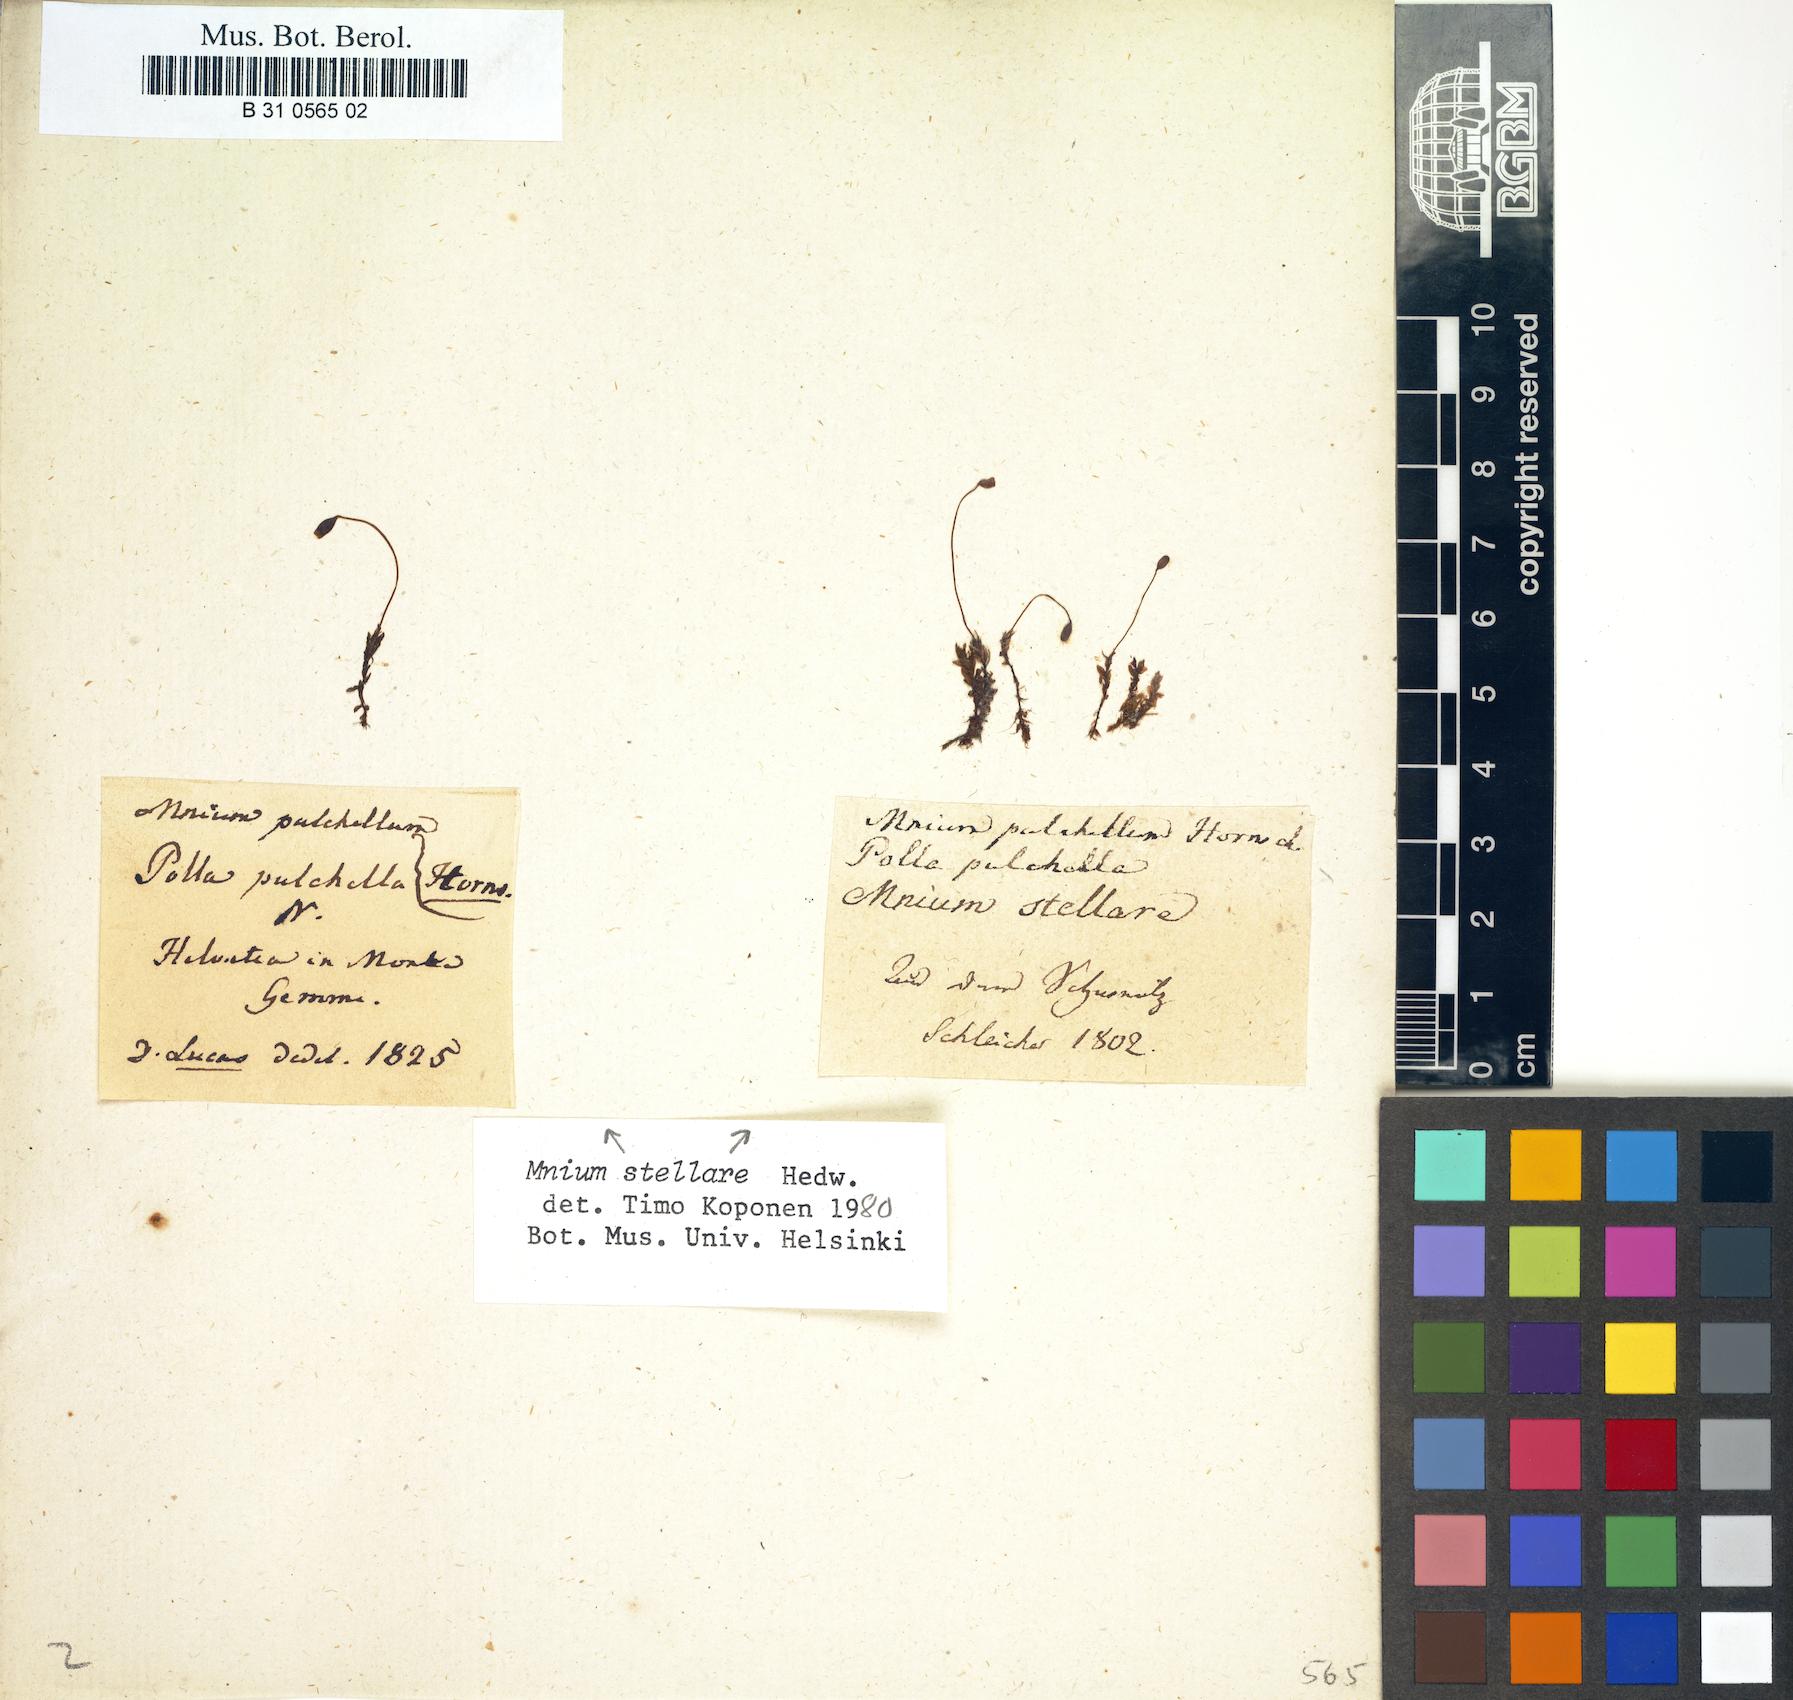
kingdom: Plantae
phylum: Bryophyta
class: Bryopsida
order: Bryales
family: Mniaceae
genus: Mnium
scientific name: Mnium stellare
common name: Star leafy moss
